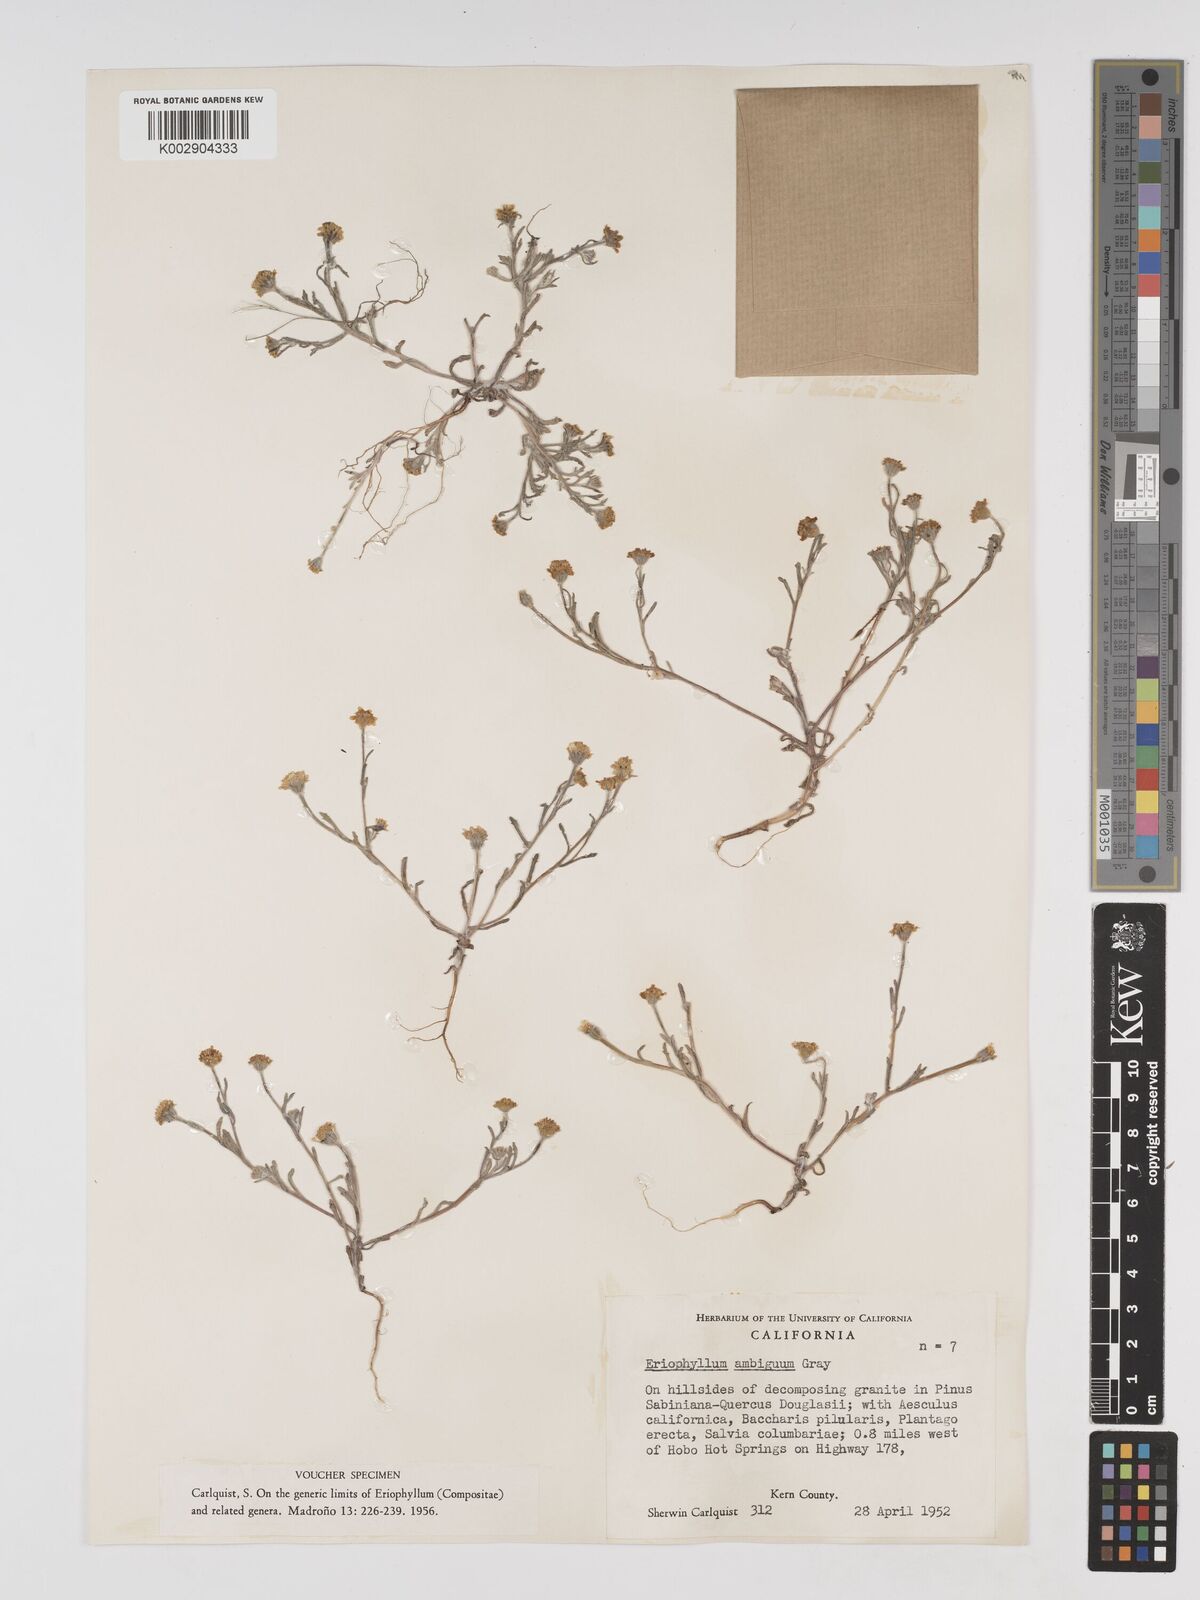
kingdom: Plantae
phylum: Tracheophyta
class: Magnoliopsida
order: Asterales
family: Asteraceae
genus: Eriophyllum
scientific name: Eriophyllum ambiguum
